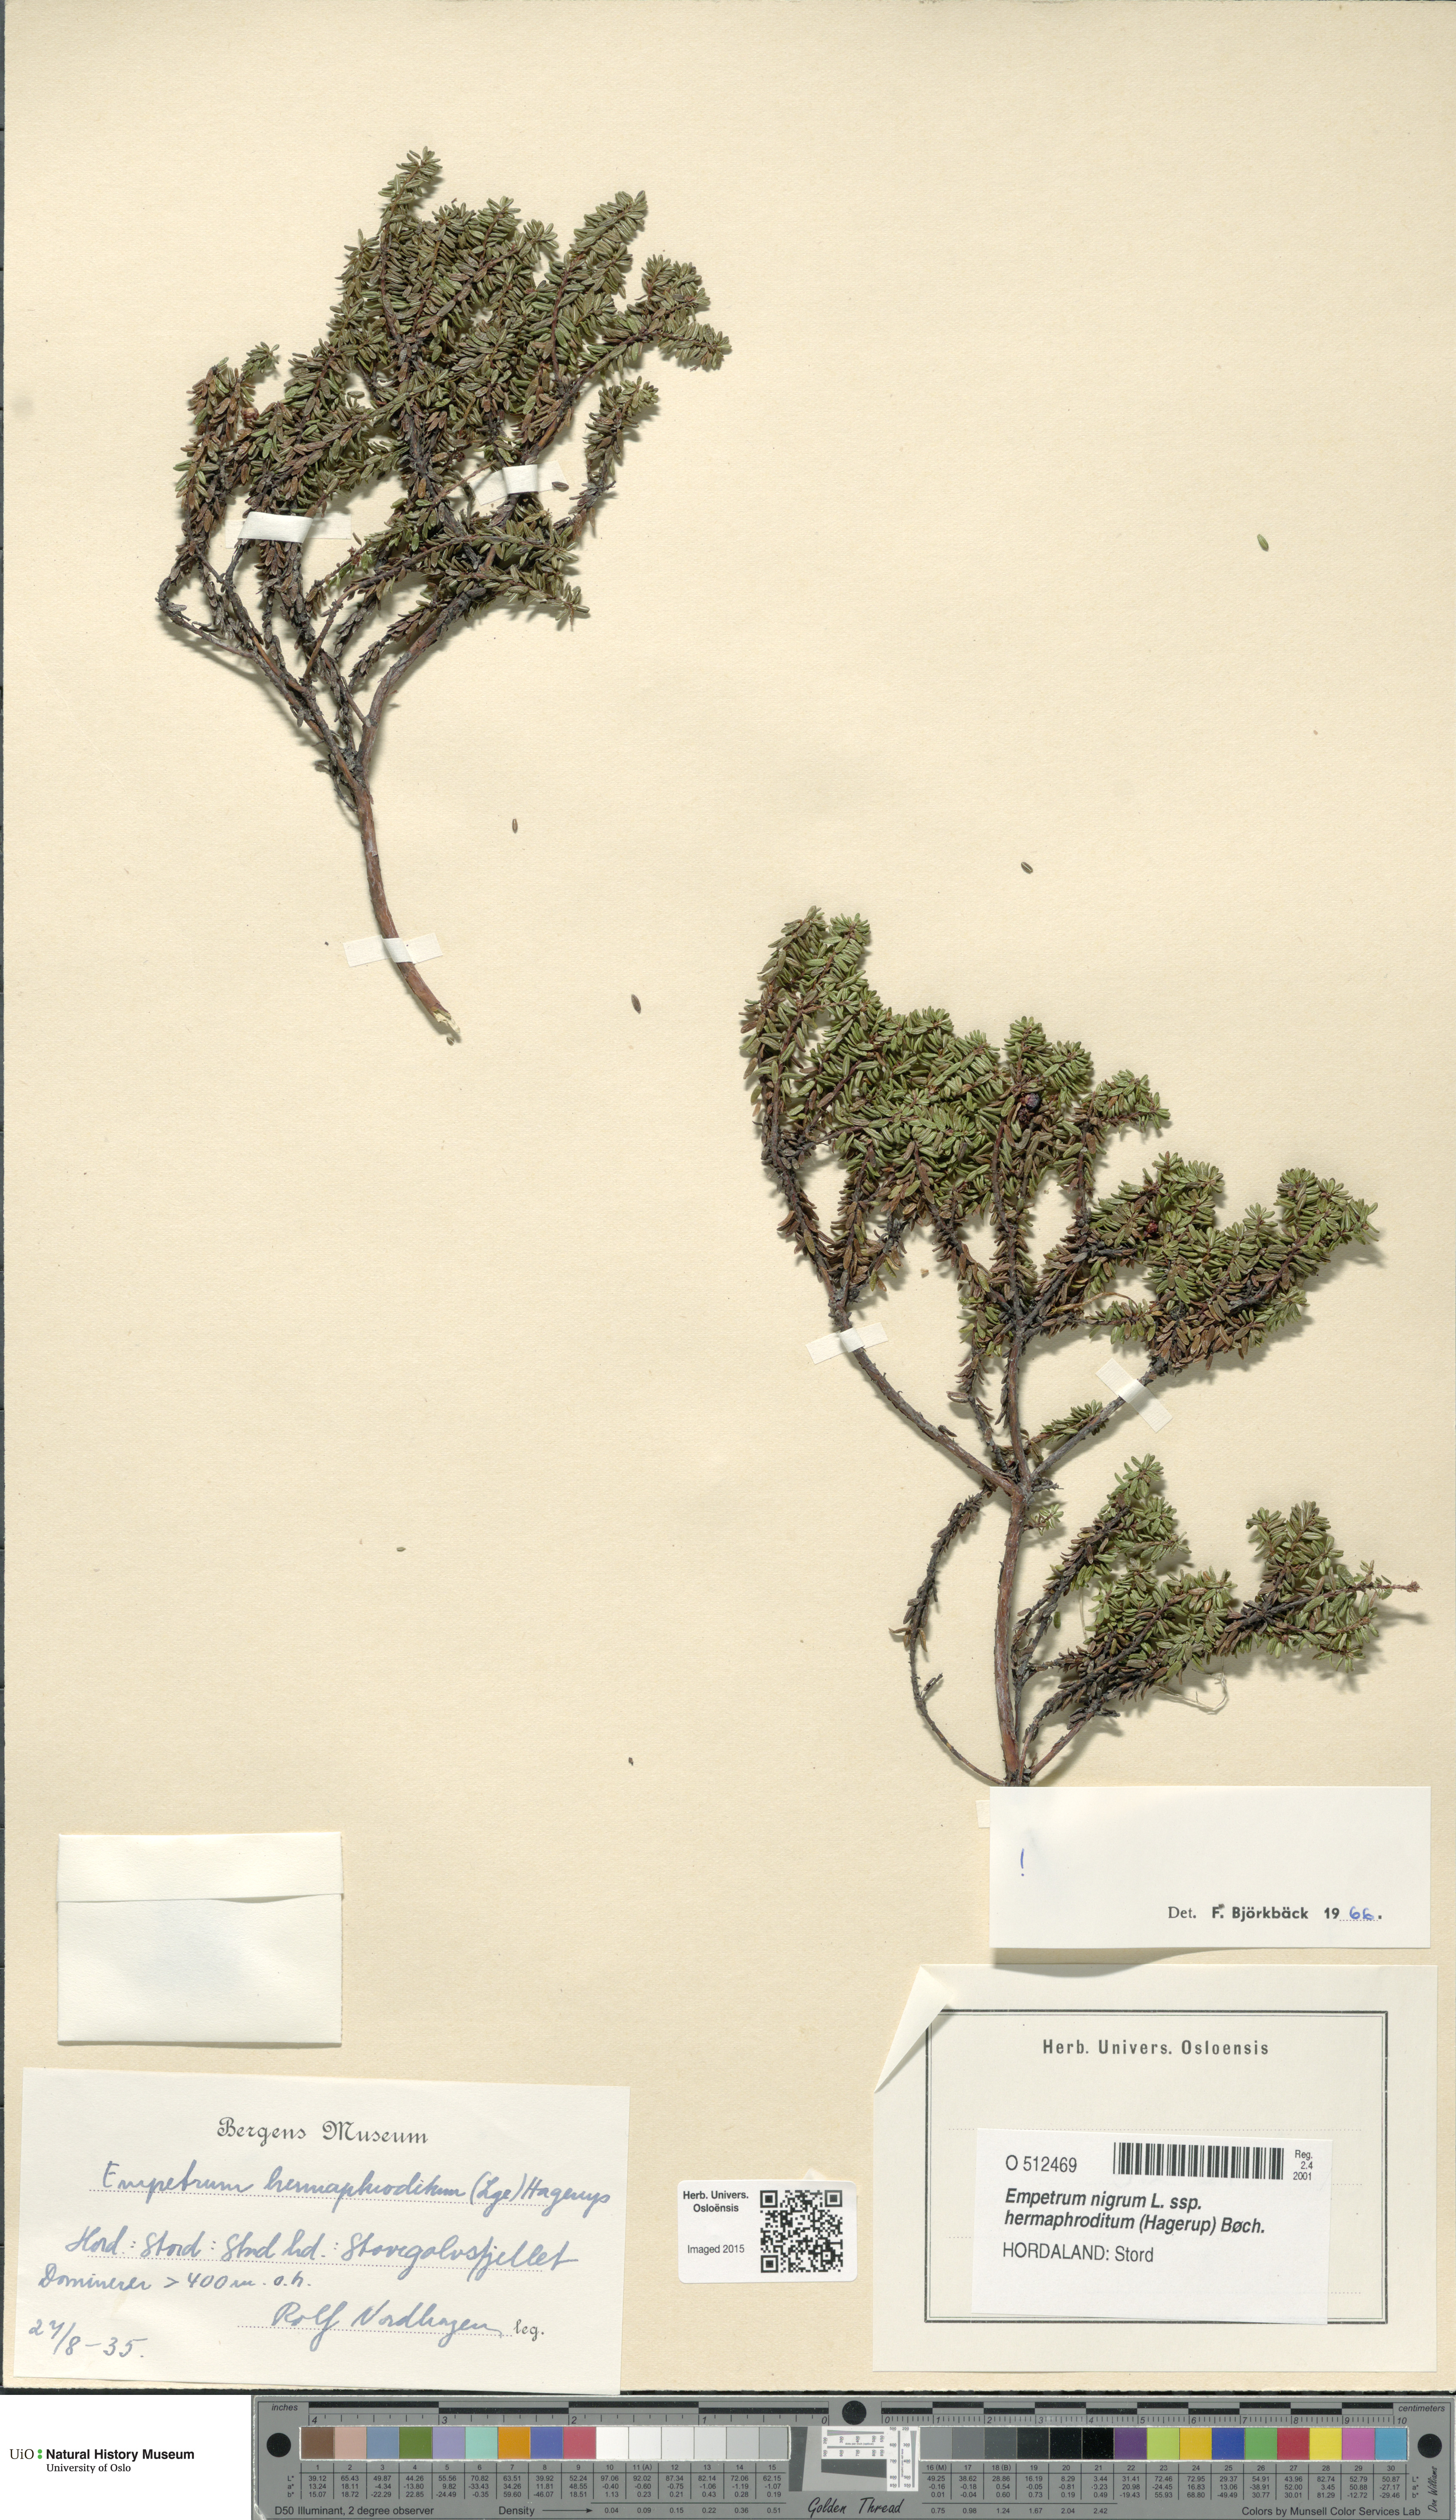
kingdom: Plantae
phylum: Tracheophyta
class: Magnoliopsida
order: Ericales
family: Ericaceae
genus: Empetrum
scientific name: Empetrum hermaphroditum
